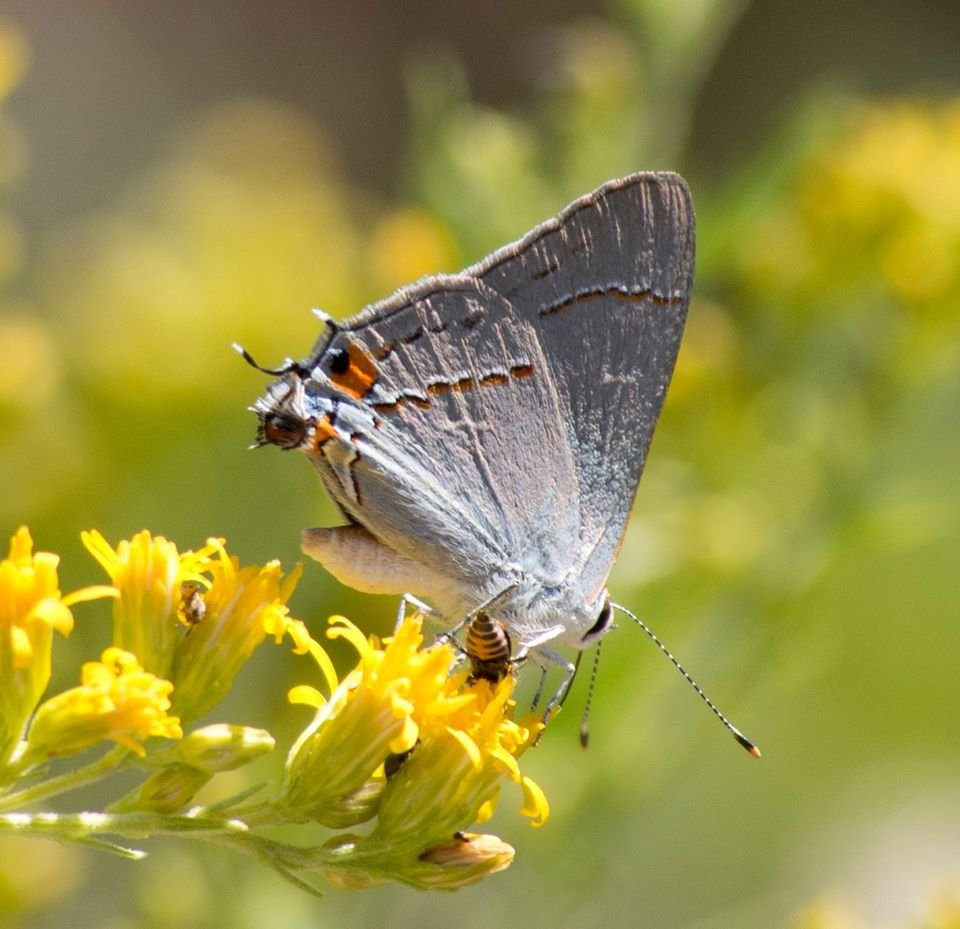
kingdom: Animalia
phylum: Arthropoda
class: Insecta
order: Lepidoptera
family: Lycaenidae
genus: Strymon
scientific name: Strymon melinus
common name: Gray Hairstreak
